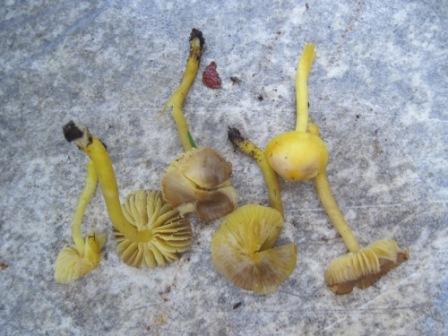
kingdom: Fungi
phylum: Basidiomycota
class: Agaricomycetes
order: Agaricales
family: Hygrophoraceae
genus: Hygrocybe
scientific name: Hygrocybe ceracea
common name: voksgul vokshat
